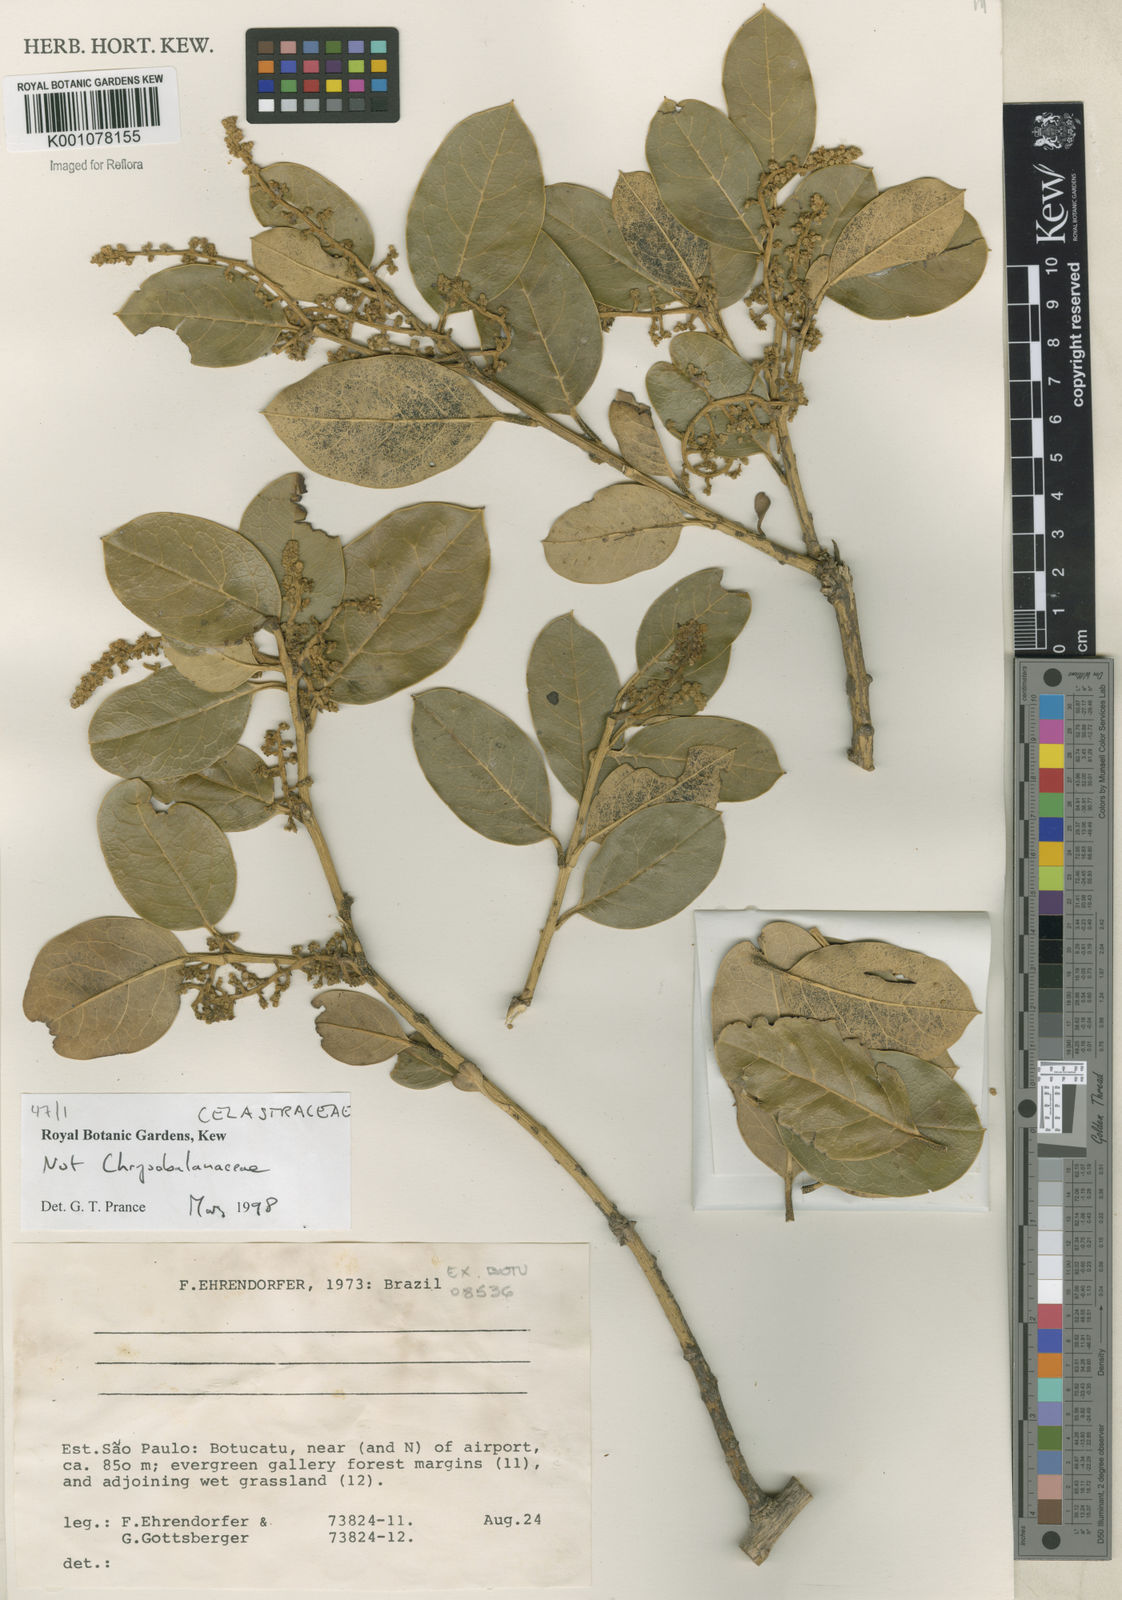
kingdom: Plantae
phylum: Tracheophyta
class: Magnoliopsida
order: Celastrales
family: Celastraceae
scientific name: Celastraceae
